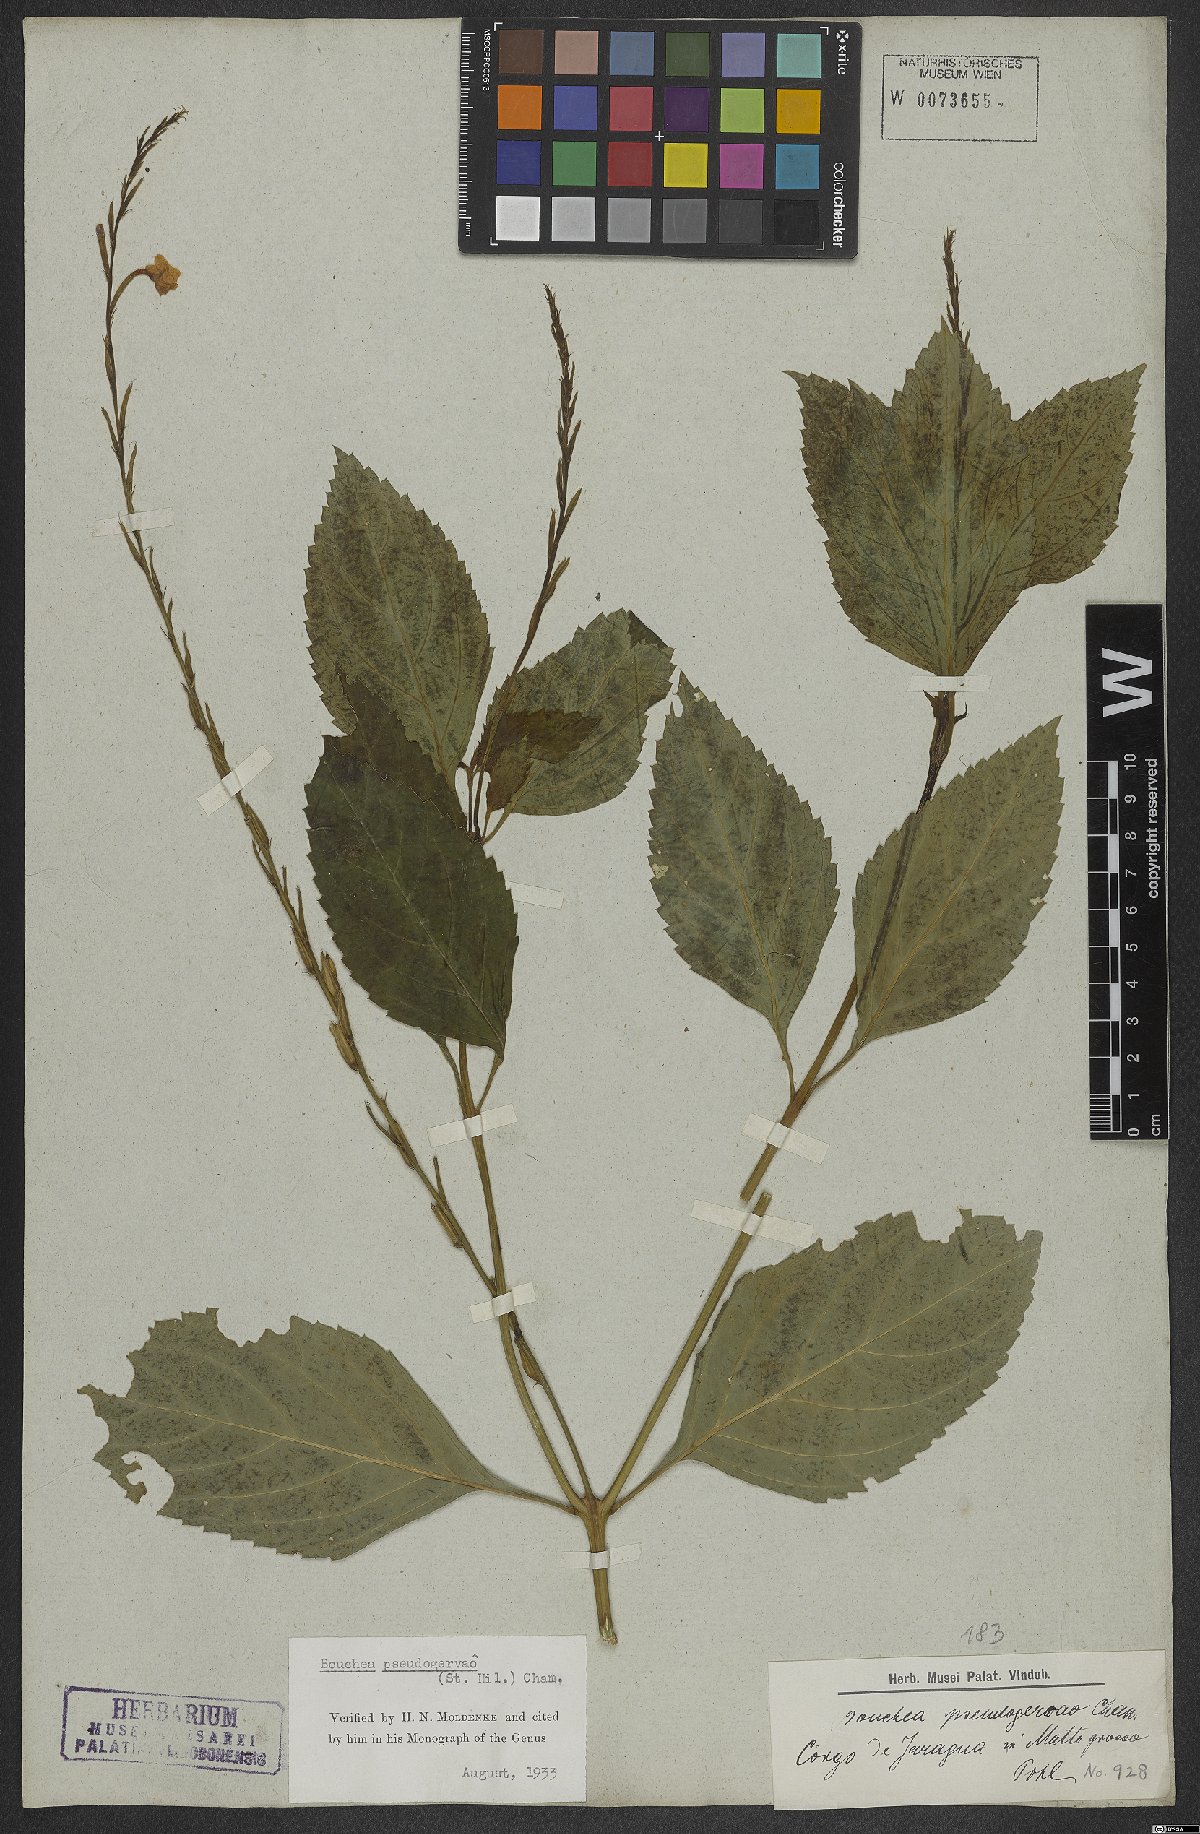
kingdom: Plantae
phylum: Tracheophyta
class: Magnoliopsida
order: Lamiales
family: Verbenaceae
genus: Bouchea
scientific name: Bouchea pseudogervao
